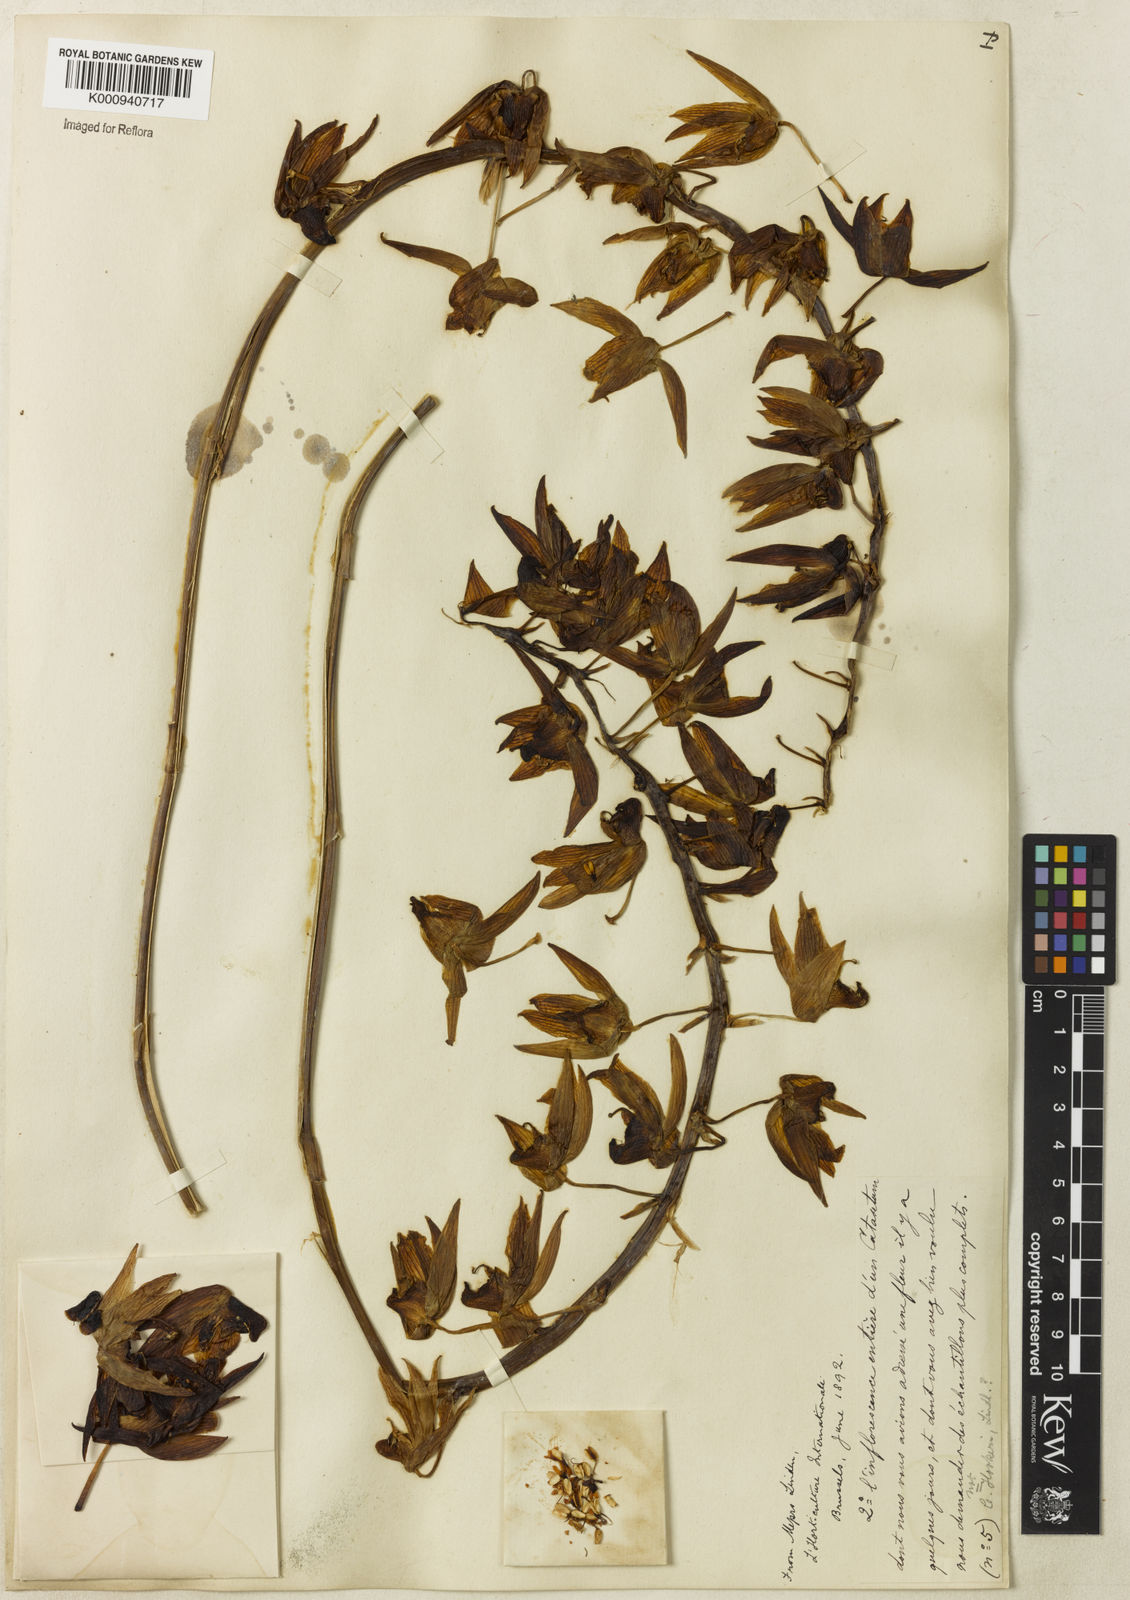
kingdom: Plantae
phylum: Tracheophyta
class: Liliopsida
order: Asparagales
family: Orchidaceae
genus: Catasetum
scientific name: Catasetum uncatum
